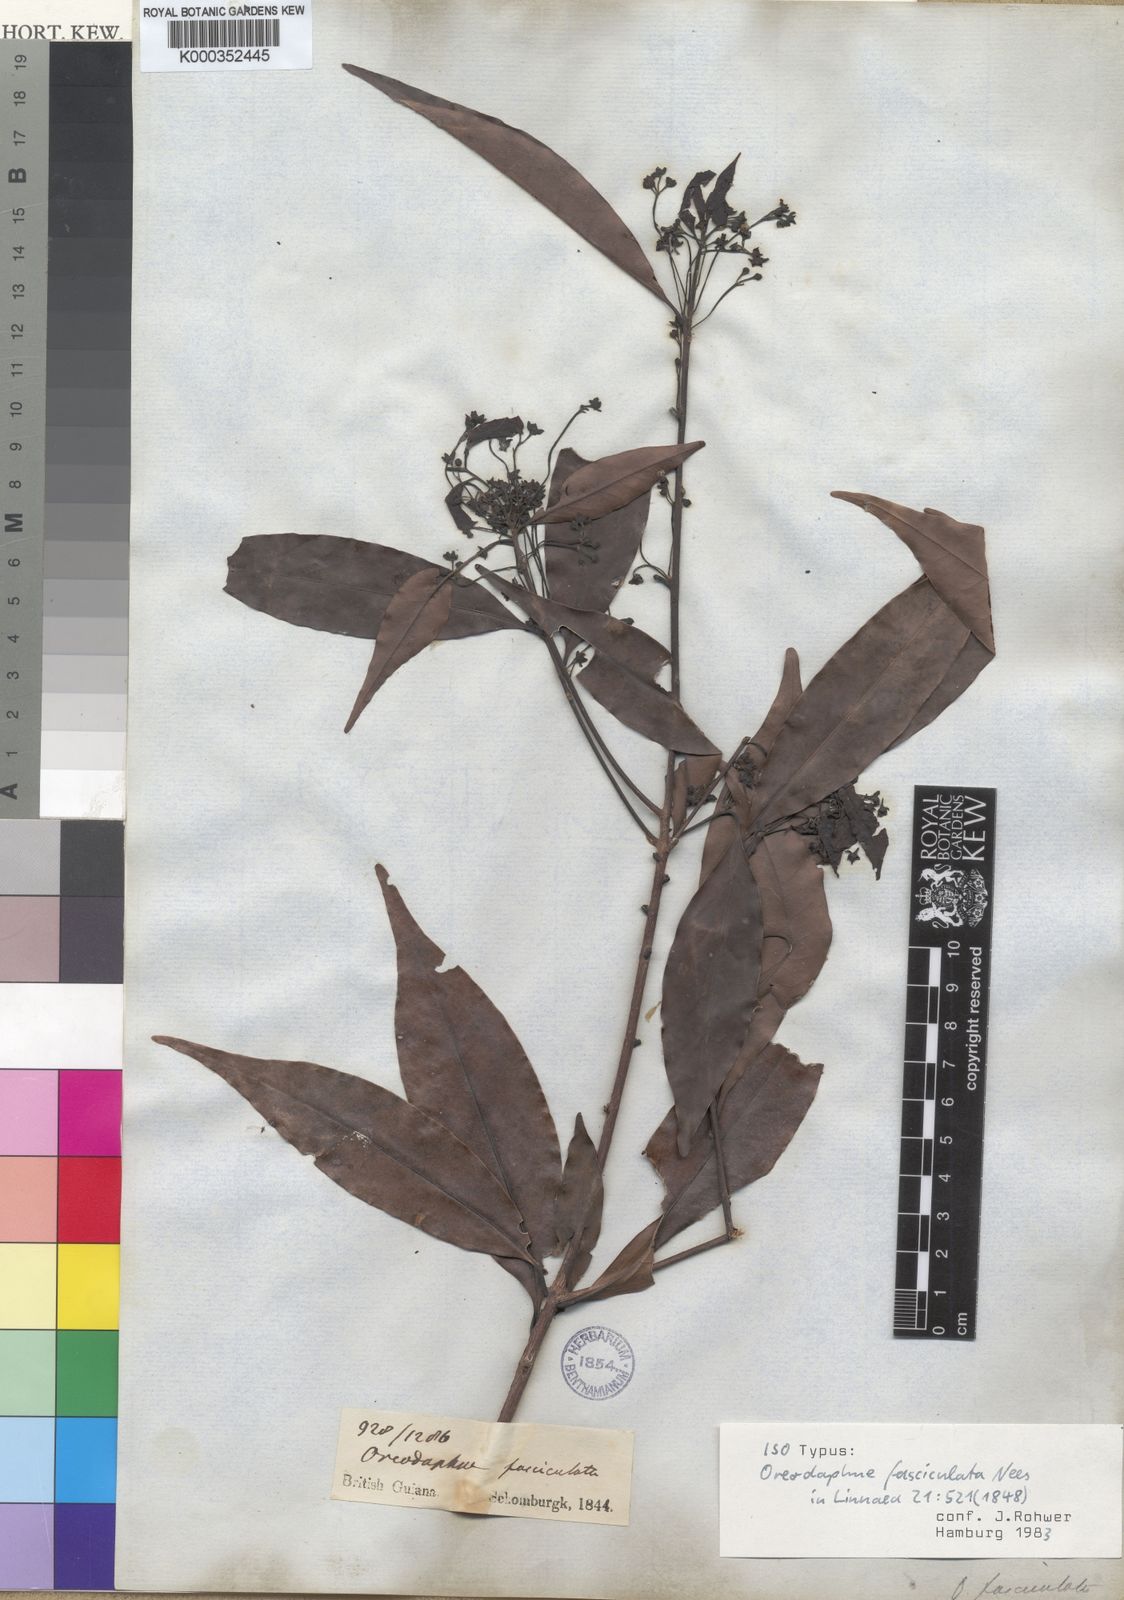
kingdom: Plantae
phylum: Tracheophyta
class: Magnoliopsida
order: Laurales
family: Lauraceae
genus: Mespilodaphne
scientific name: Mespilodaphne fasciculata
